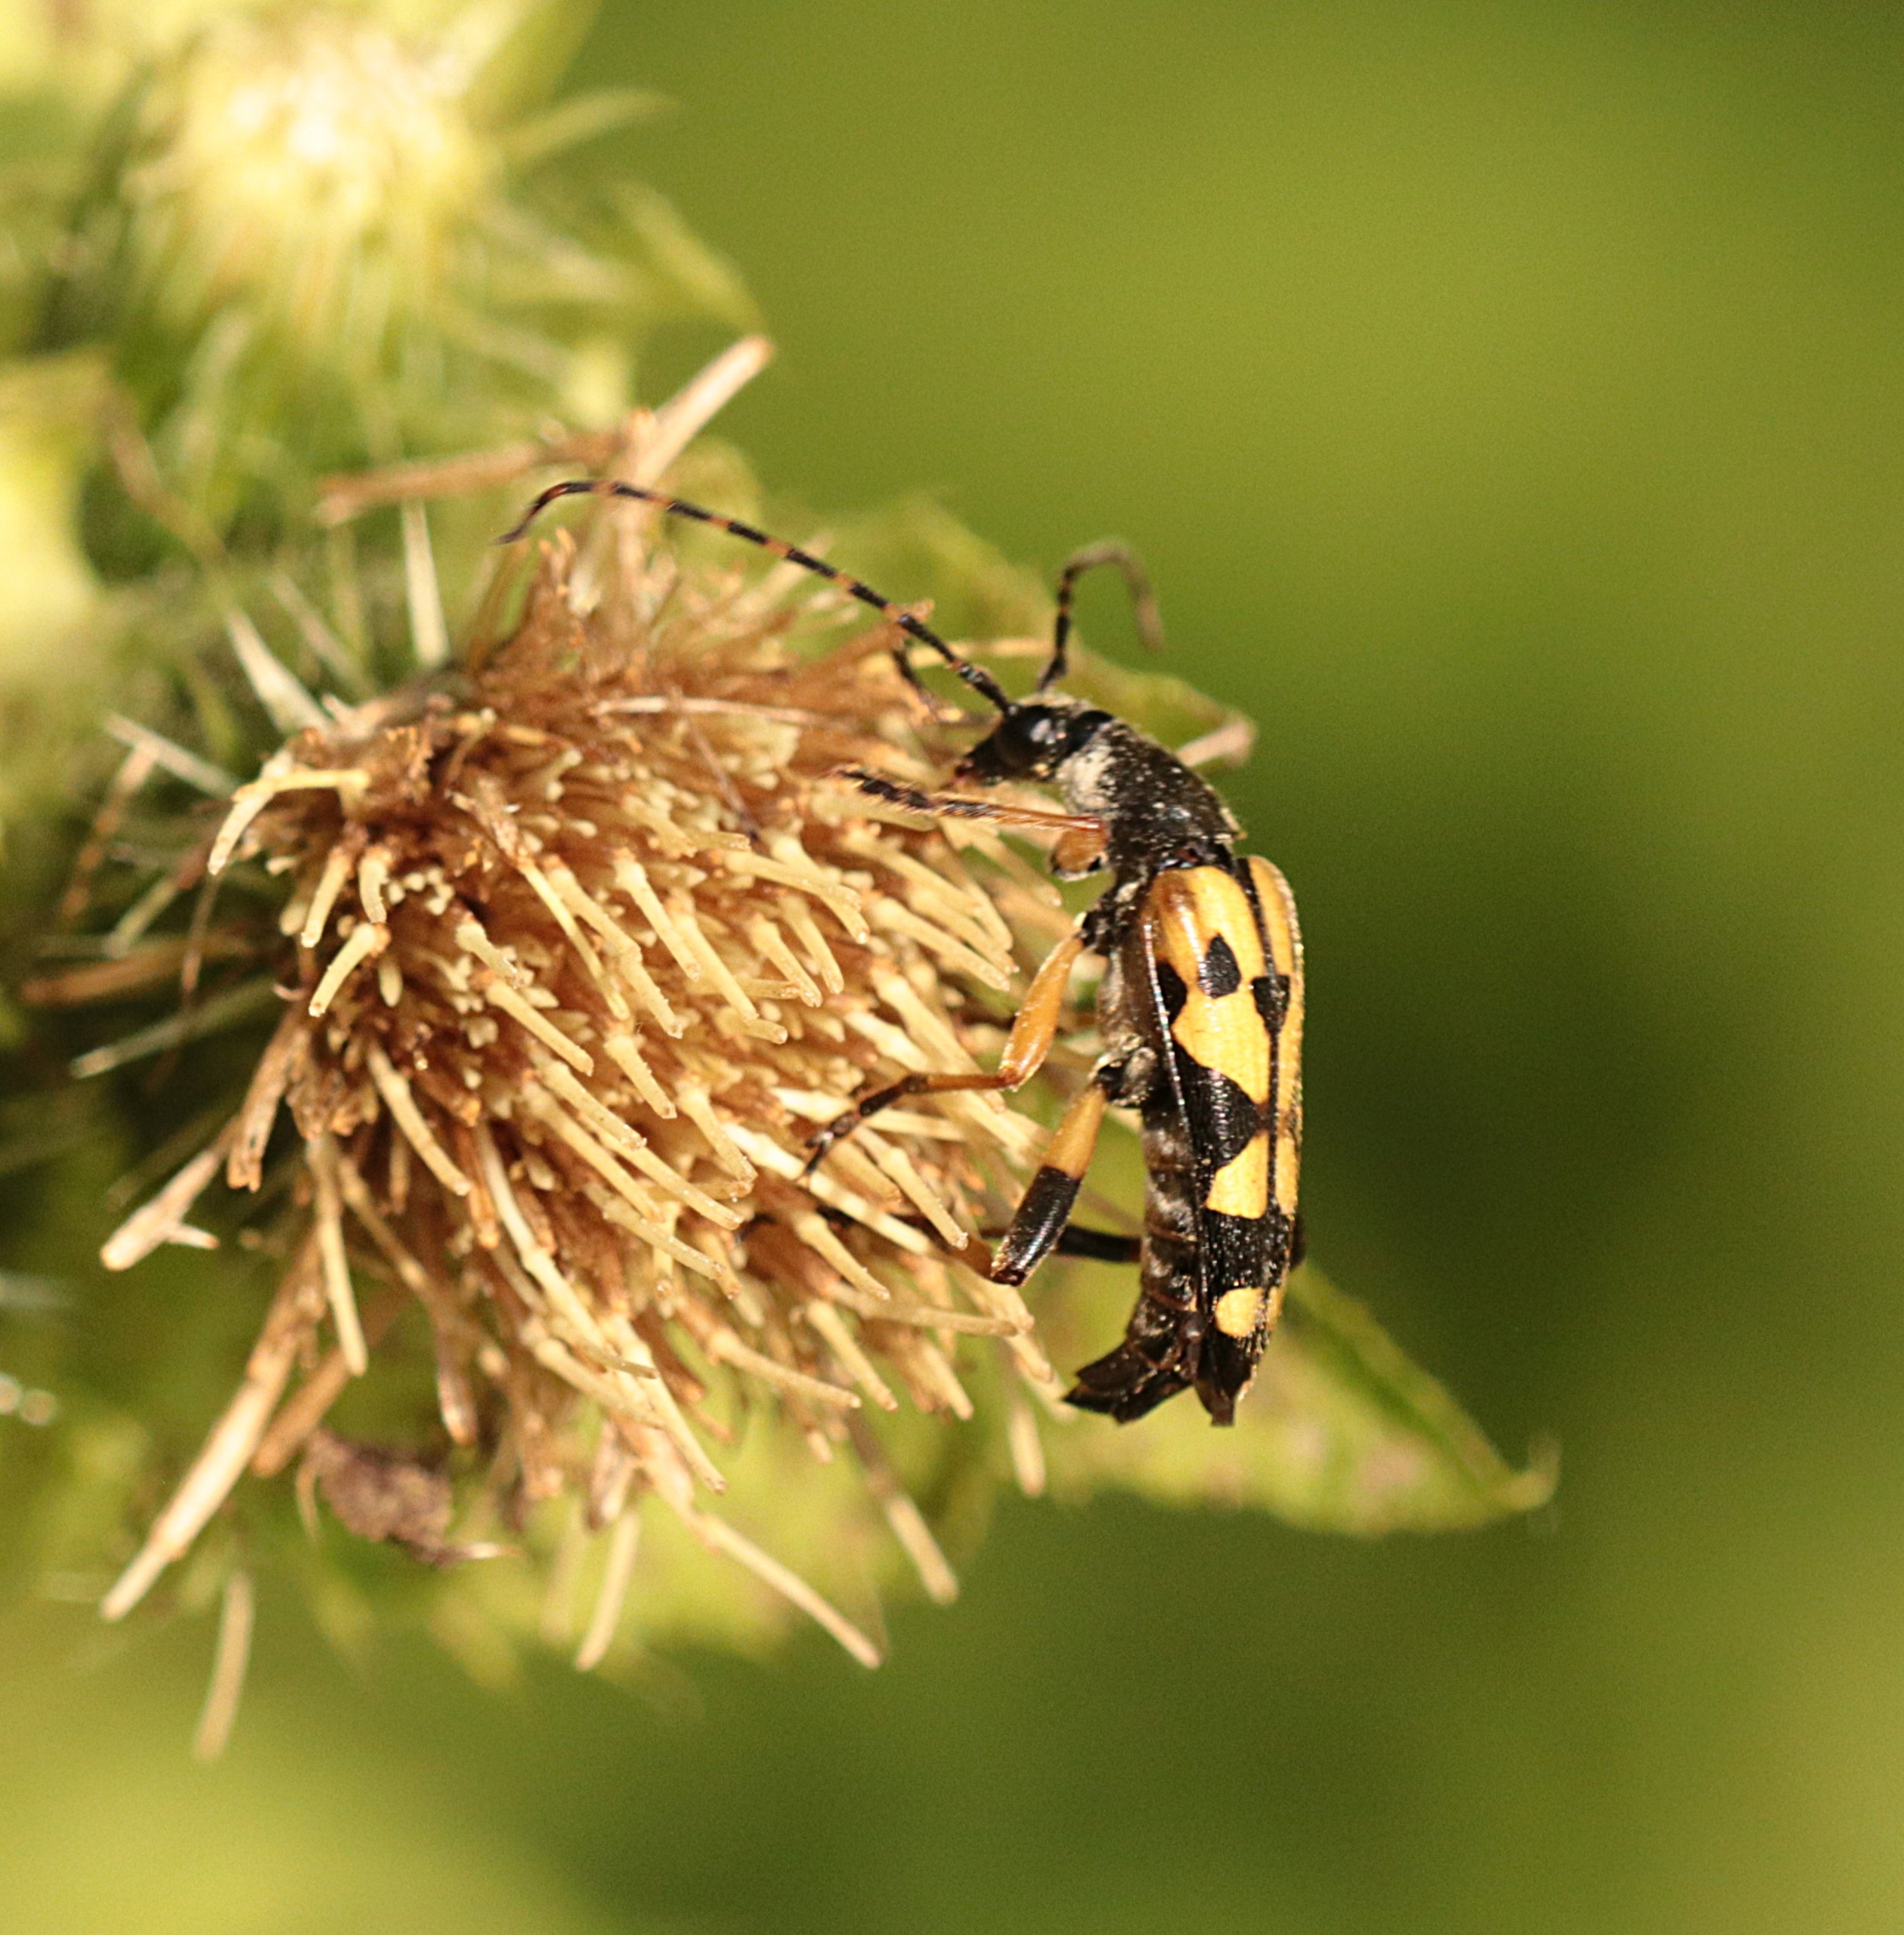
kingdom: Animalia
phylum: Arthropoda
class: Insecta
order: Coleoptera
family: Cerambycidae
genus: Rutpela
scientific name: Rutpela maculata
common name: Sydlig blomsterbuk
